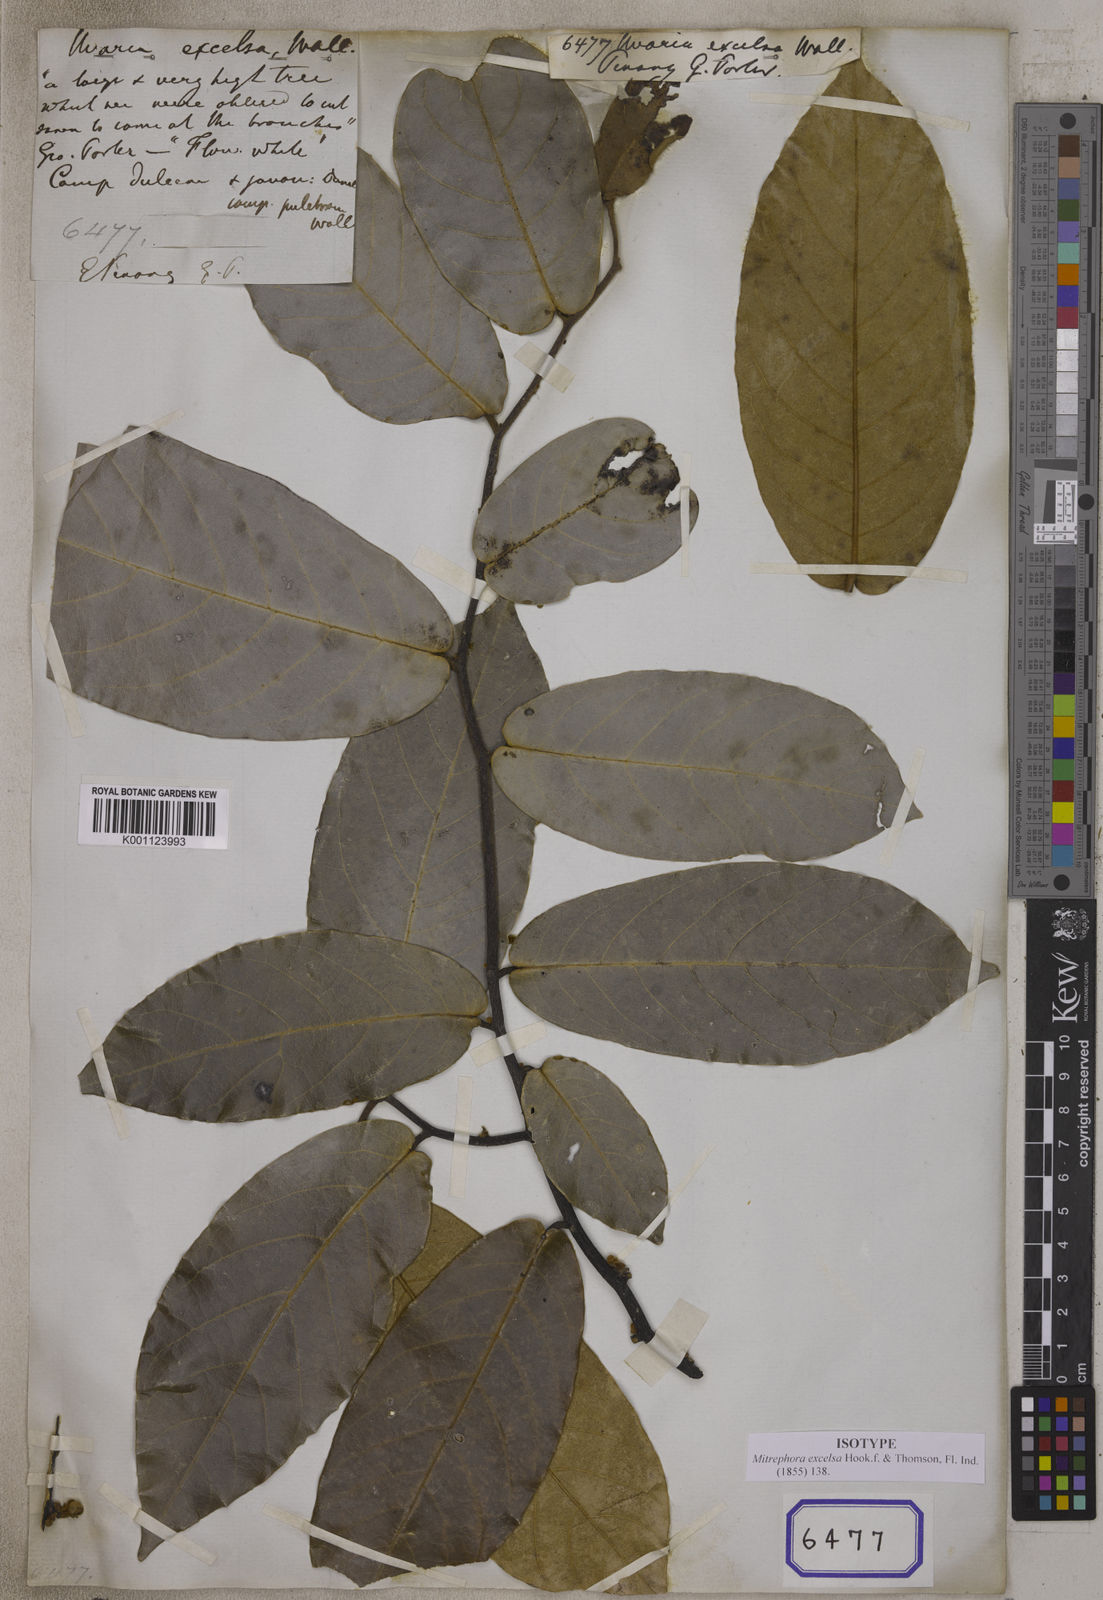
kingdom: Plantae
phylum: Tracheophyta
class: Magnoliopsida
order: Magnoliales
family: Annonaceae
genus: Uvaria
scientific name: Uvaria
